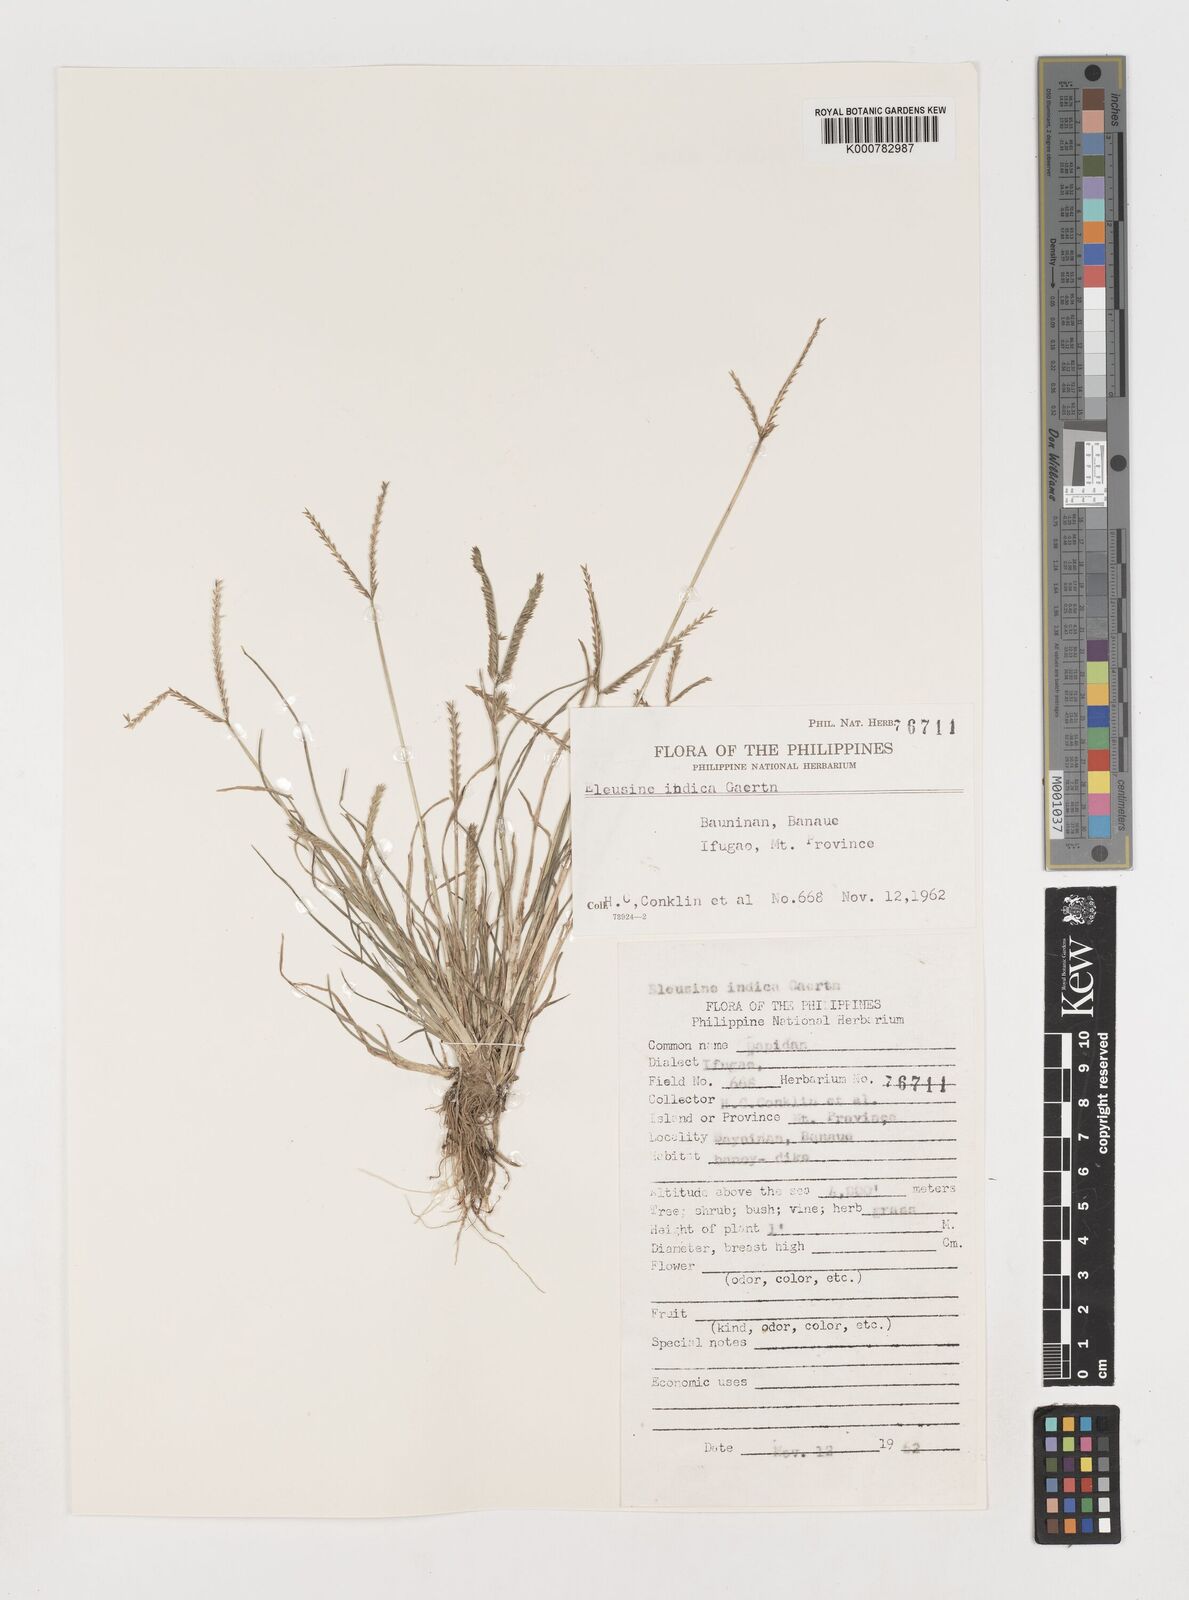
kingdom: Plantae
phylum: Tracheophyta
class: Liliopsida
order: Poales
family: Poaceae
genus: Eleusine
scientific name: Eleusine indica
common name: Yard-grass
